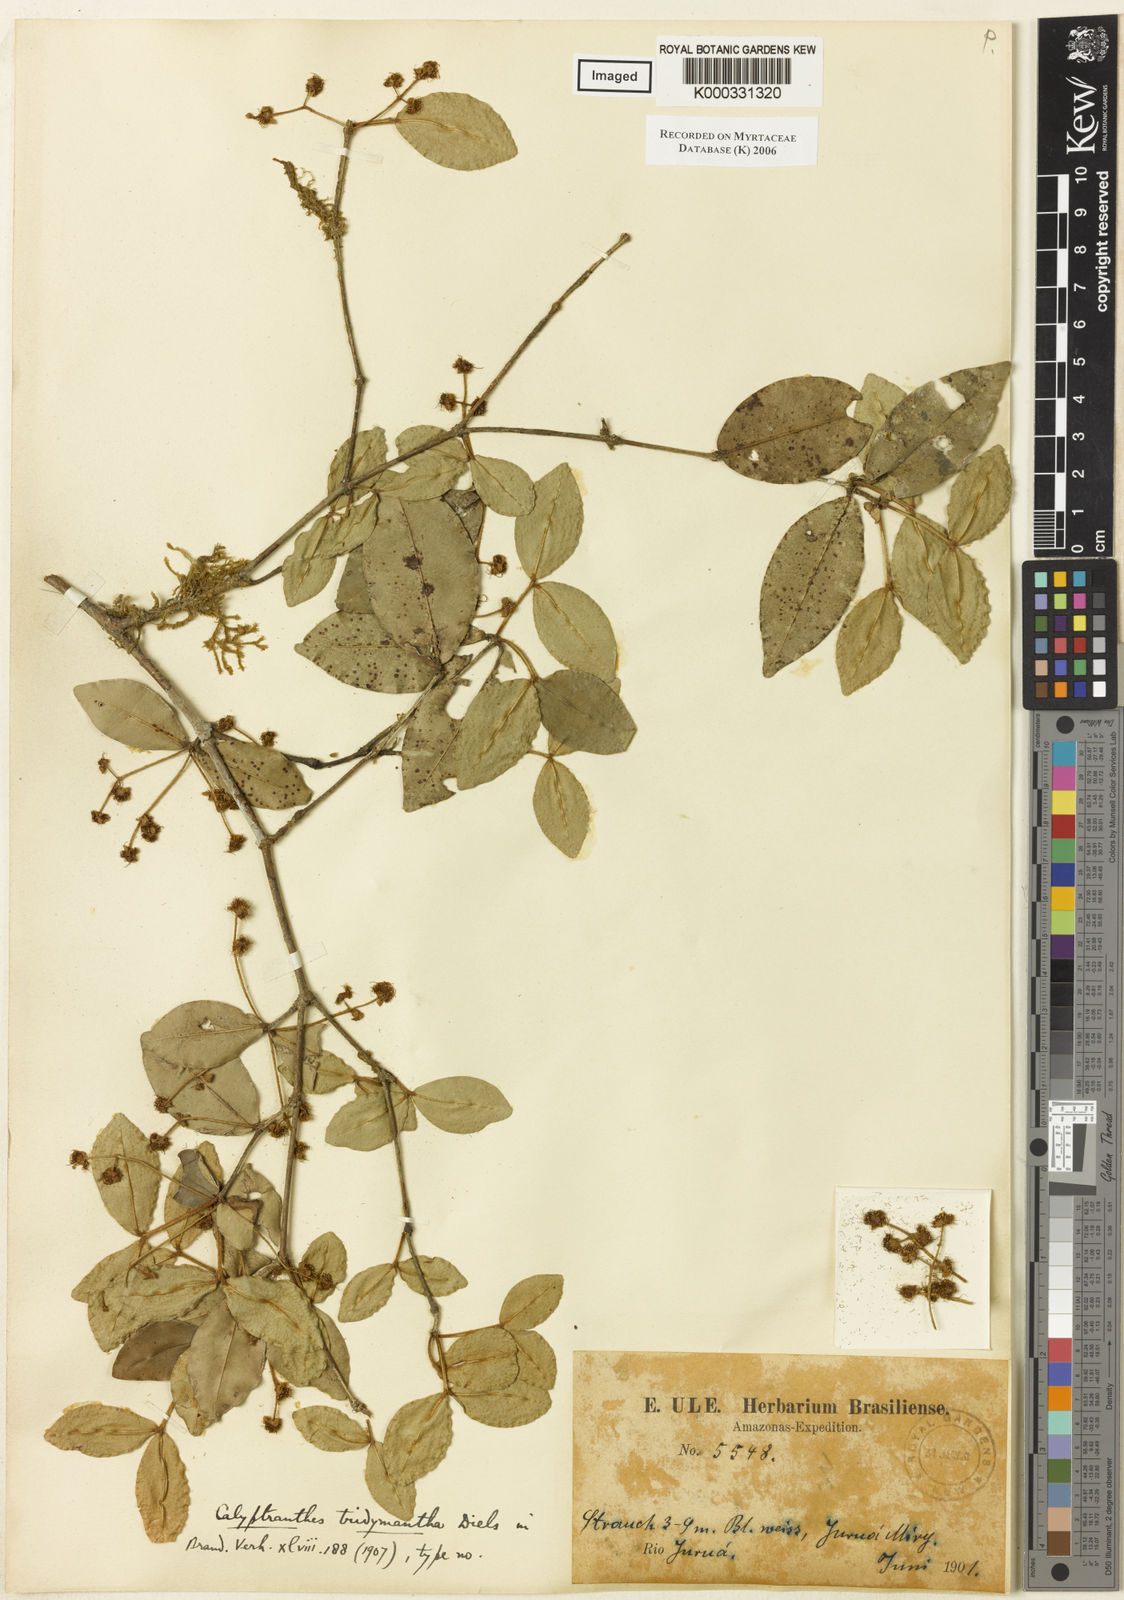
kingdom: Plantae
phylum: Tracheophyta
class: Magnoliopsida
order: Myrtales
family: Myrtaceae
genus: Myrcia
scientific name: Myrcia tridymantha
